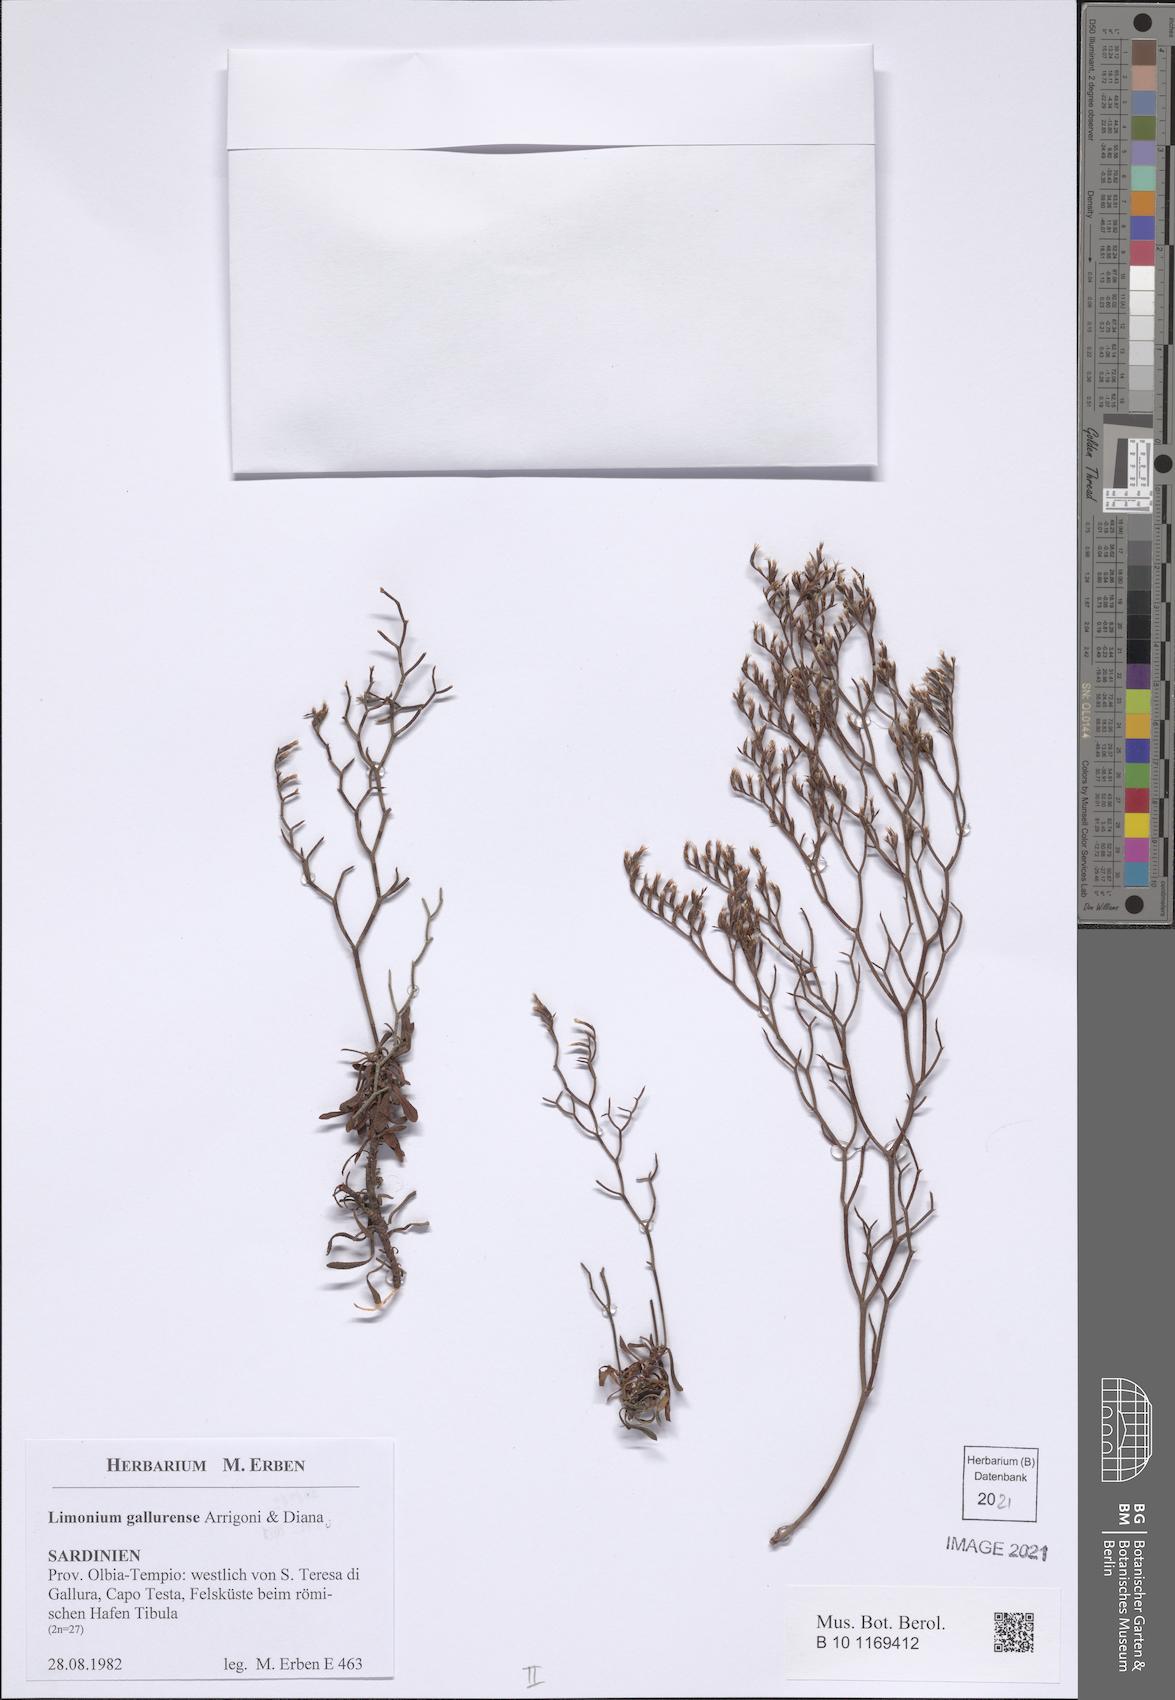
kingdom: Plantae
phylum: Tracheophyta
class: Magnoliopsida
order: Caryophyllales
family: Plumbaginaceae
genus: Limonium
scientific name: Limonium gallurense
